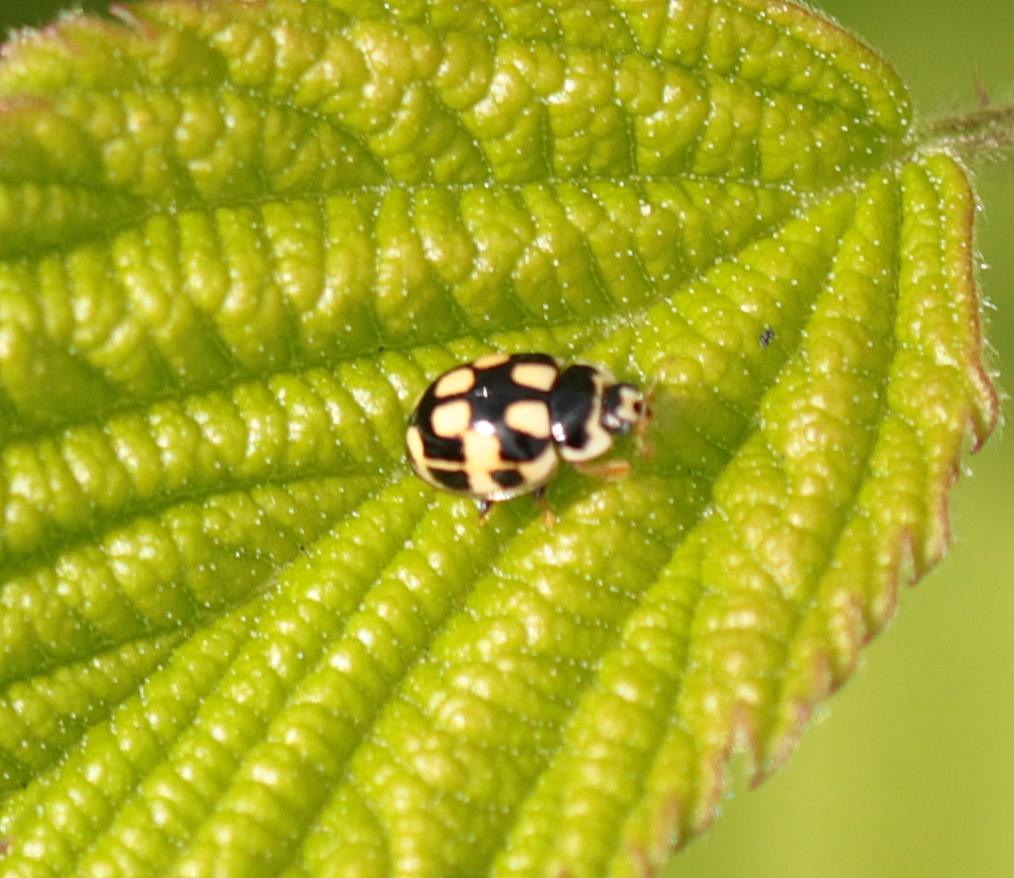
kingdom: Animalia
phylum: Arthropoda
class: Insecta
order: Coleoptera
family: Coccinellidae
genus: Propylaea
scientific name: Propylaea quatuordecimpunctata
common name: Skakbræt
